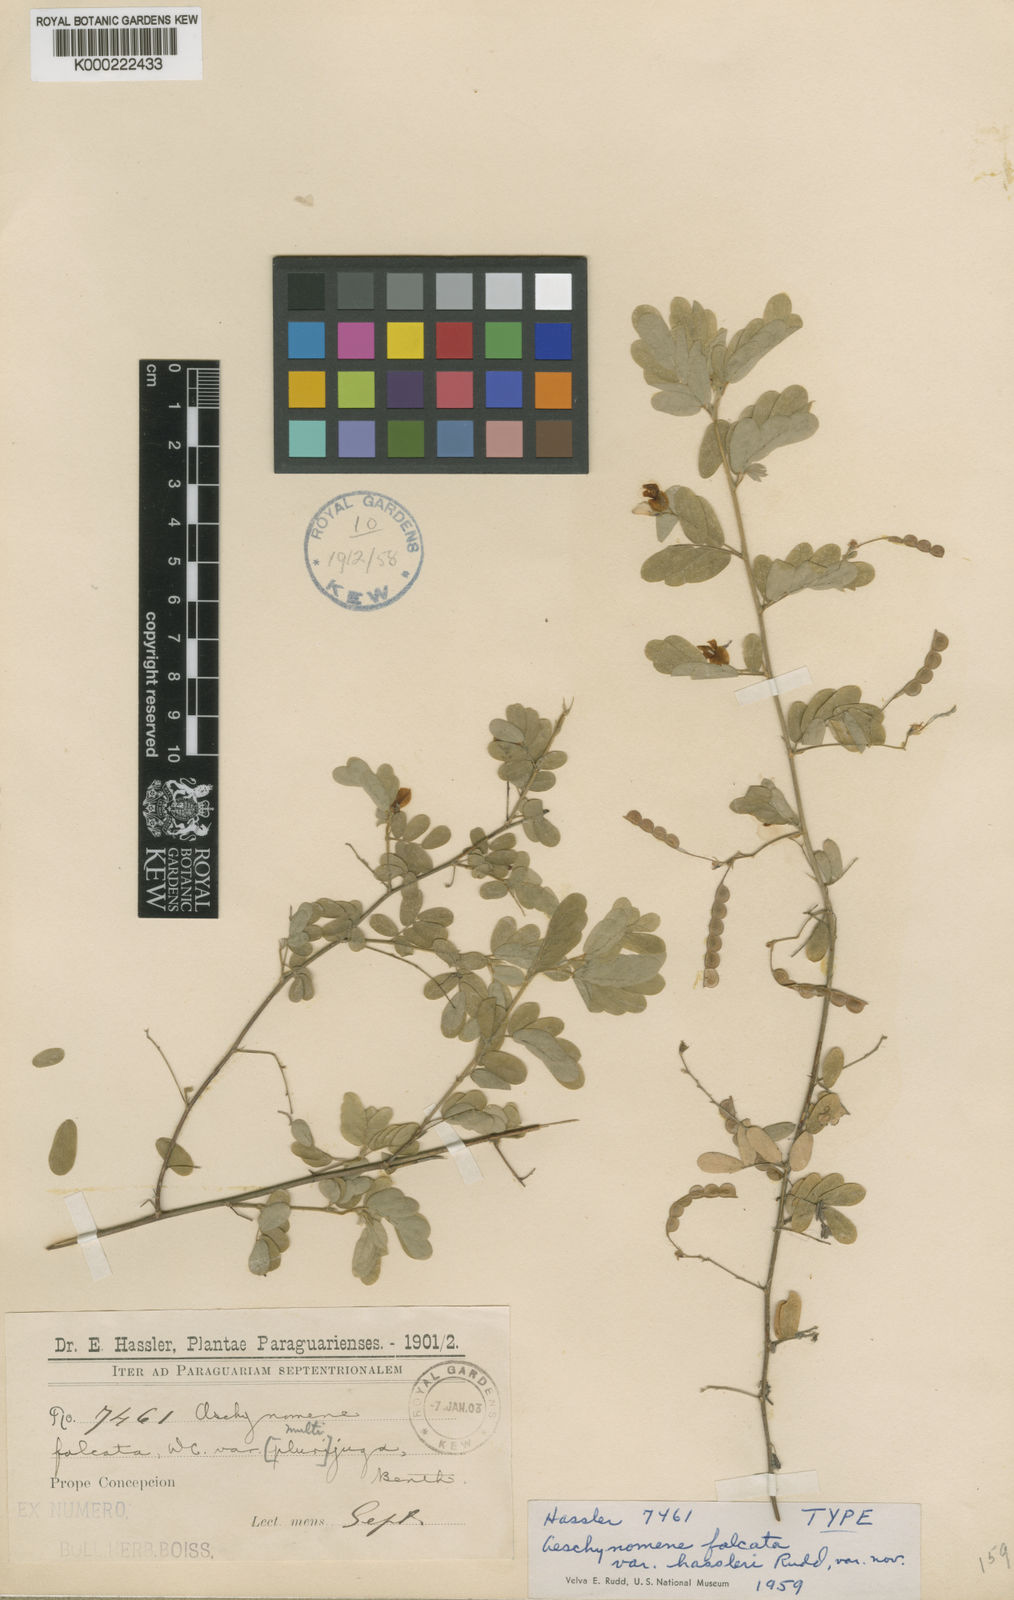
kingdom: Plantae
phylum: Tracheophyta
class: Magnoliopsida
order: Fabales
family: Fabaceae
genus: Ctenodon
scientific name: Ctenodon falcatus
